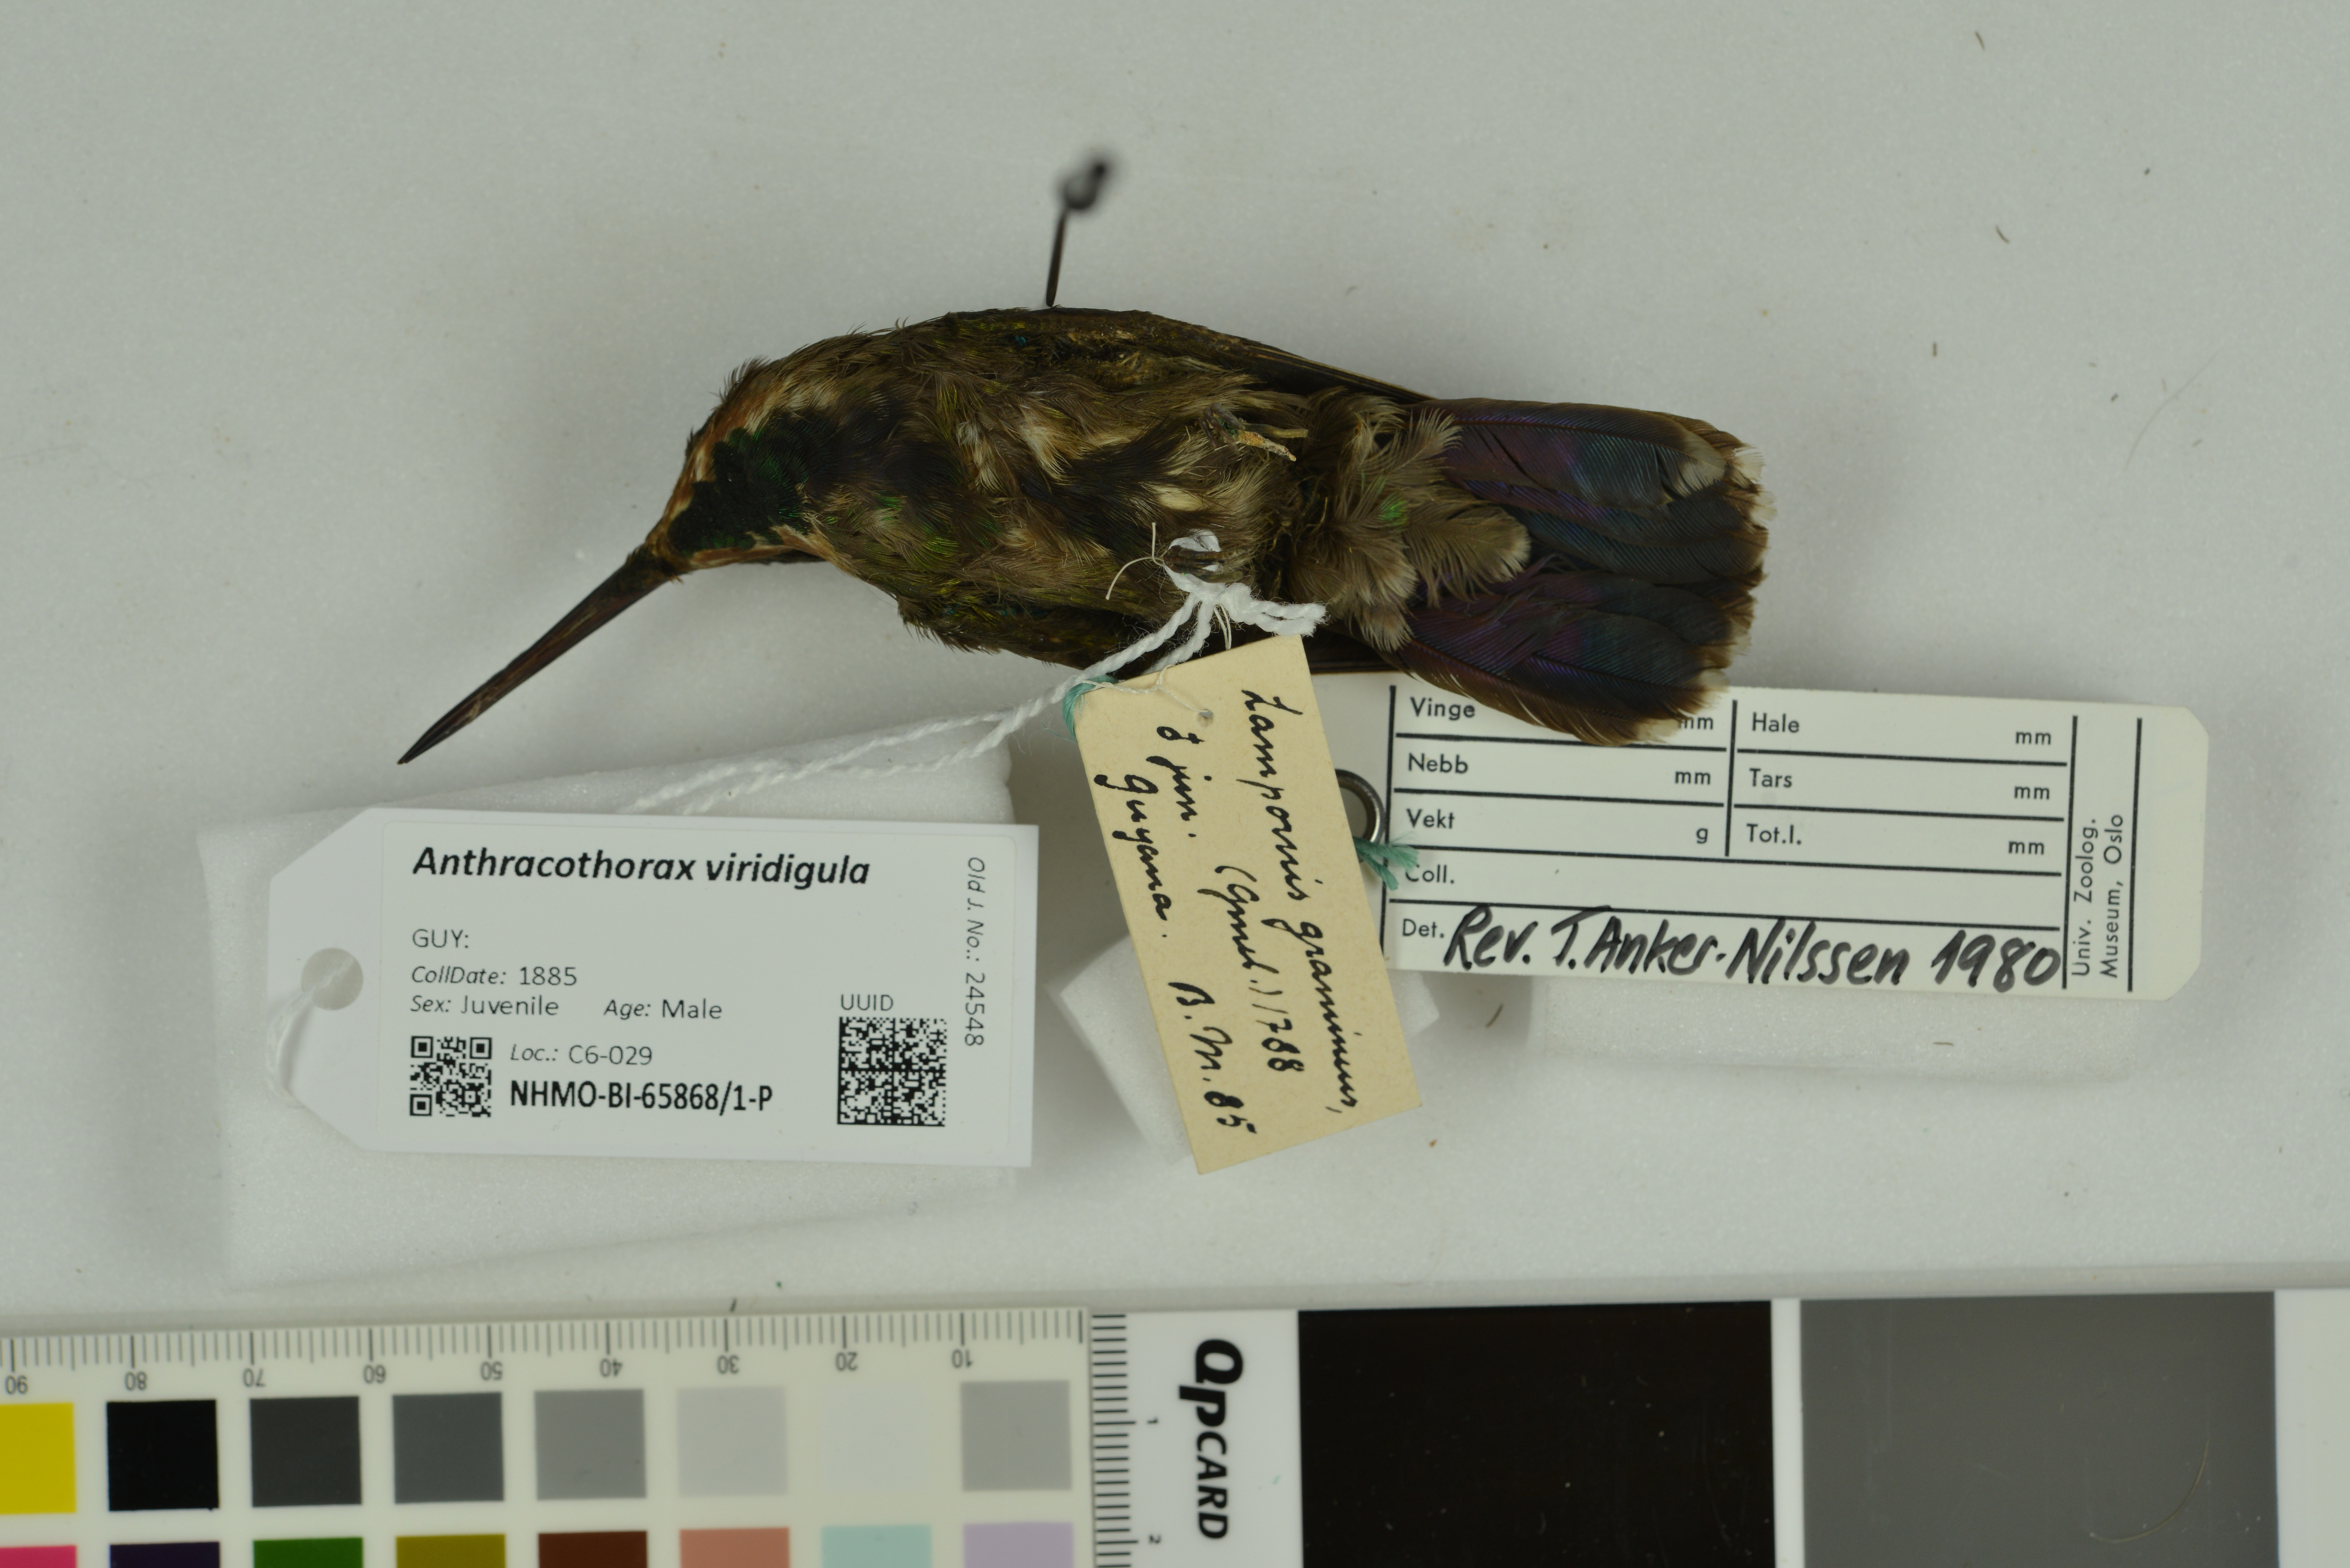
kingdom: Animalia
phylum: Chordata
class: Aves
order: Apodiformes
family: Trochilidae
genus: Anthracothorax
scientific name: Anthracothorax viridigula
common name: Green-throated mango
